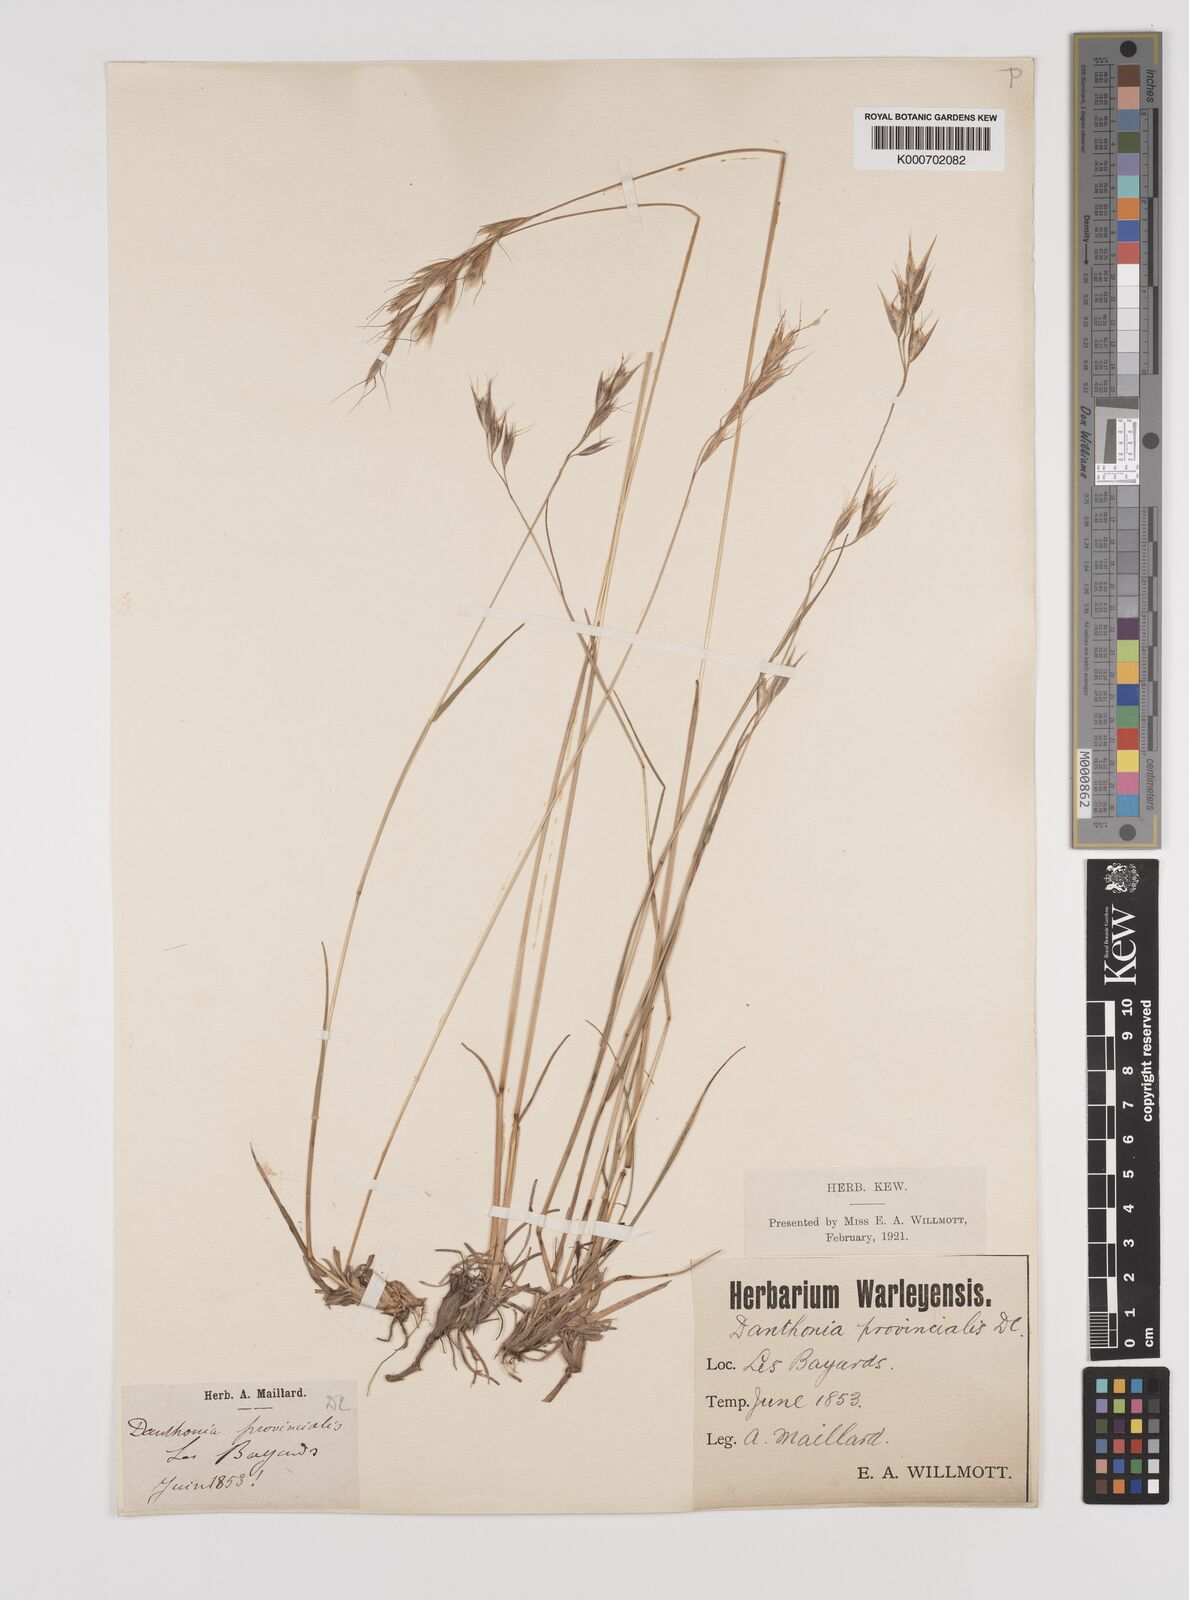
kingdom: Plantae
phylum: Tracheophyta
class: Liliopsida
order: Poales
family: Poaceae
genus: Danthonia
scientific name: Danthonia alpina
